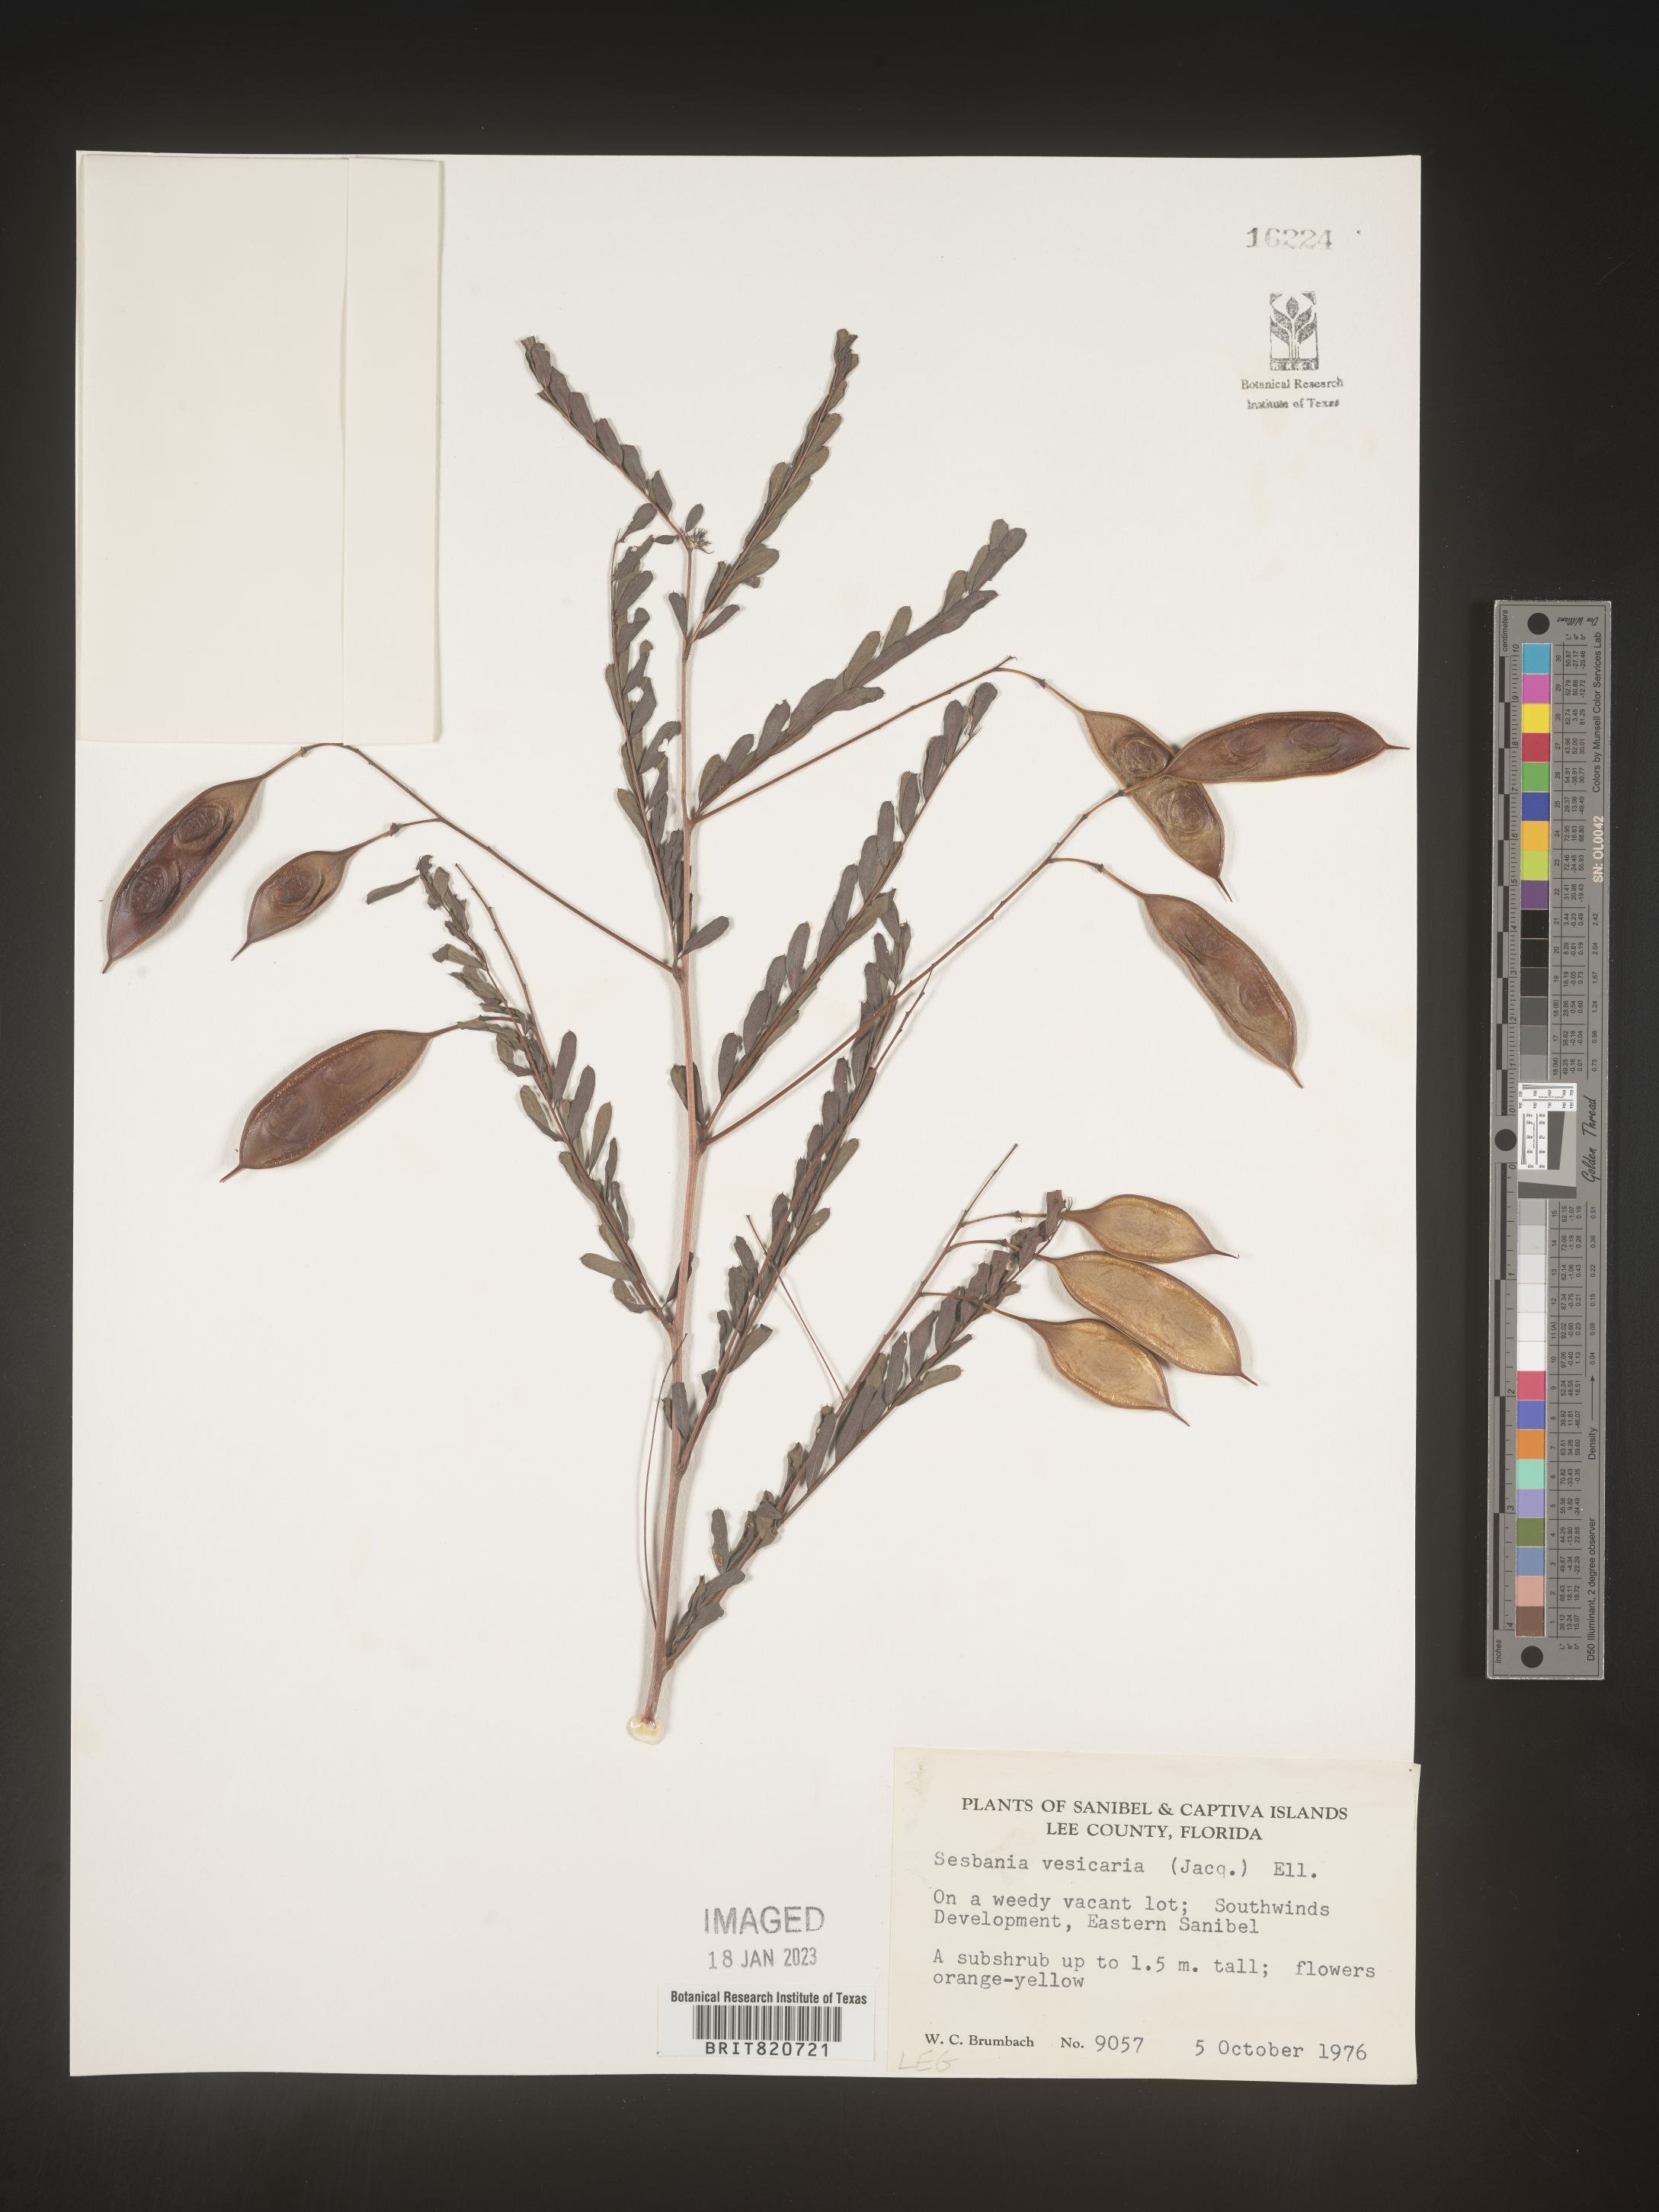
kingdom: Plantae
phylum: Tracheophyta
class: Magnoliopsida
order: Fabales
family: Fabaceae
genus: Sesbania
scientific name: Sesbania vesicaria
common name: Bagpod
